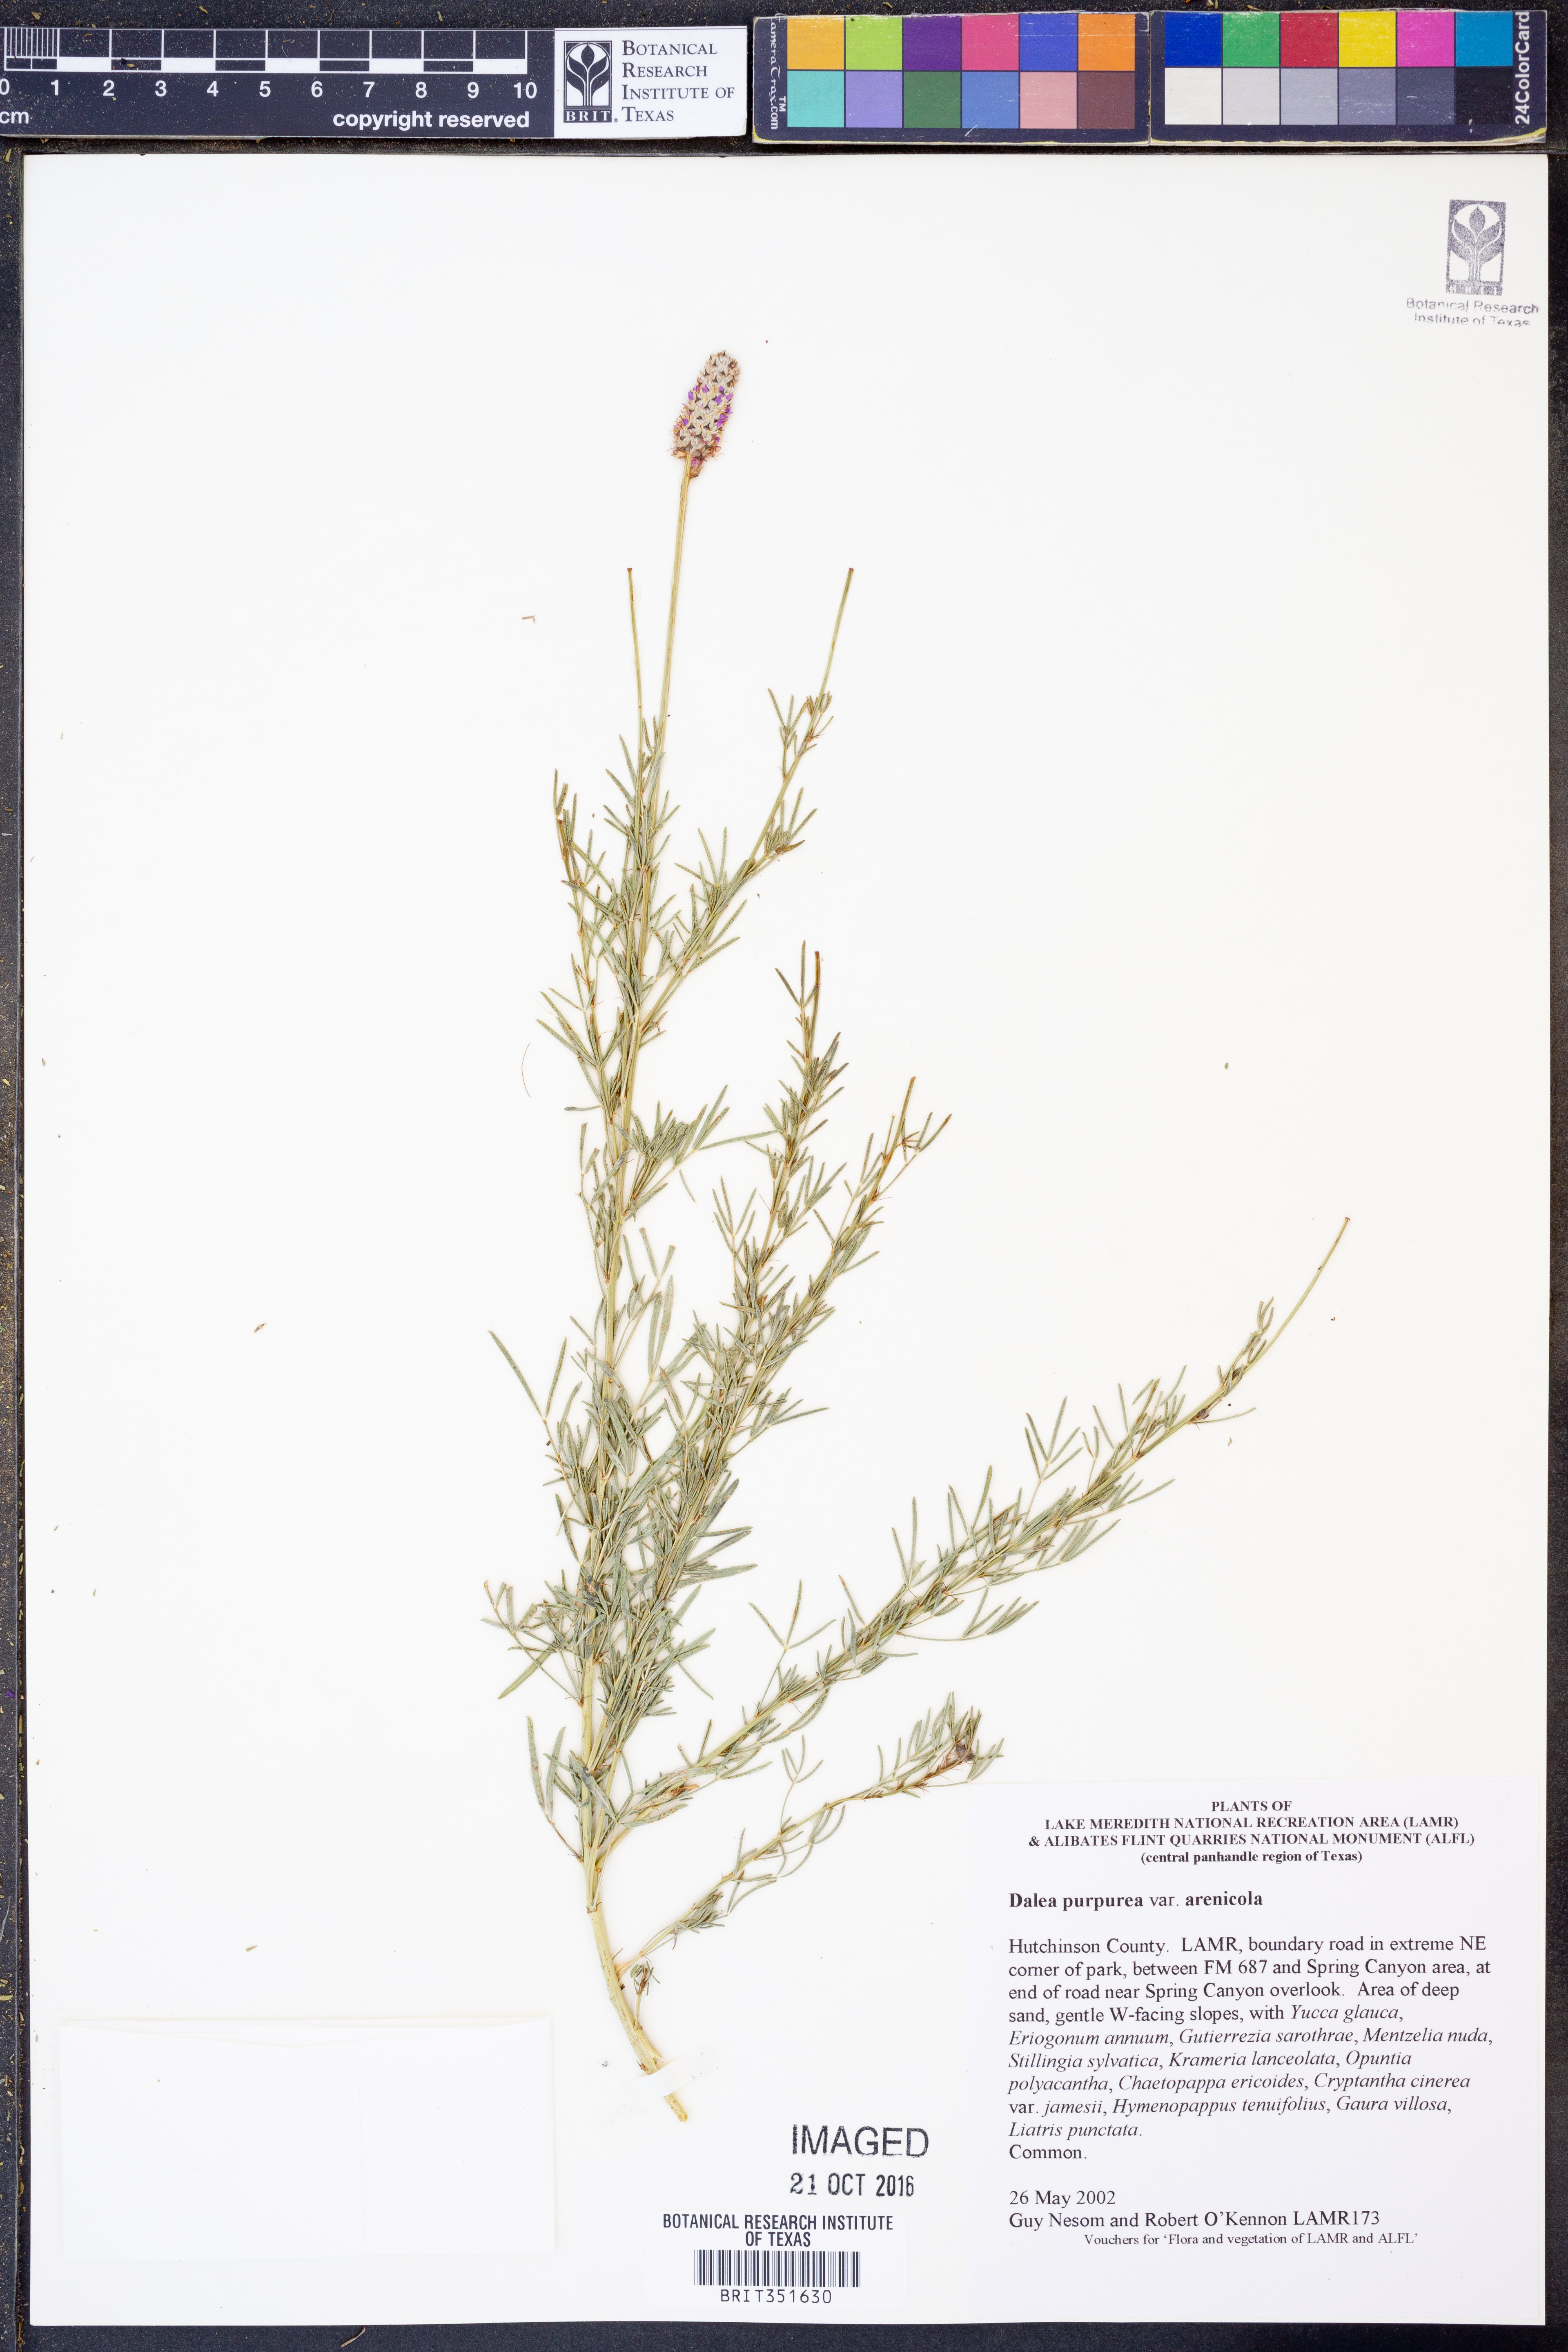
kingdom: Plantae
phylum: Tracheophyta
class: Magnoliopsida
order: Fabales
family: Fabaceae
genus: Dalea
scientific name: Dalea purpurea
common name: Purple prairie-clover
